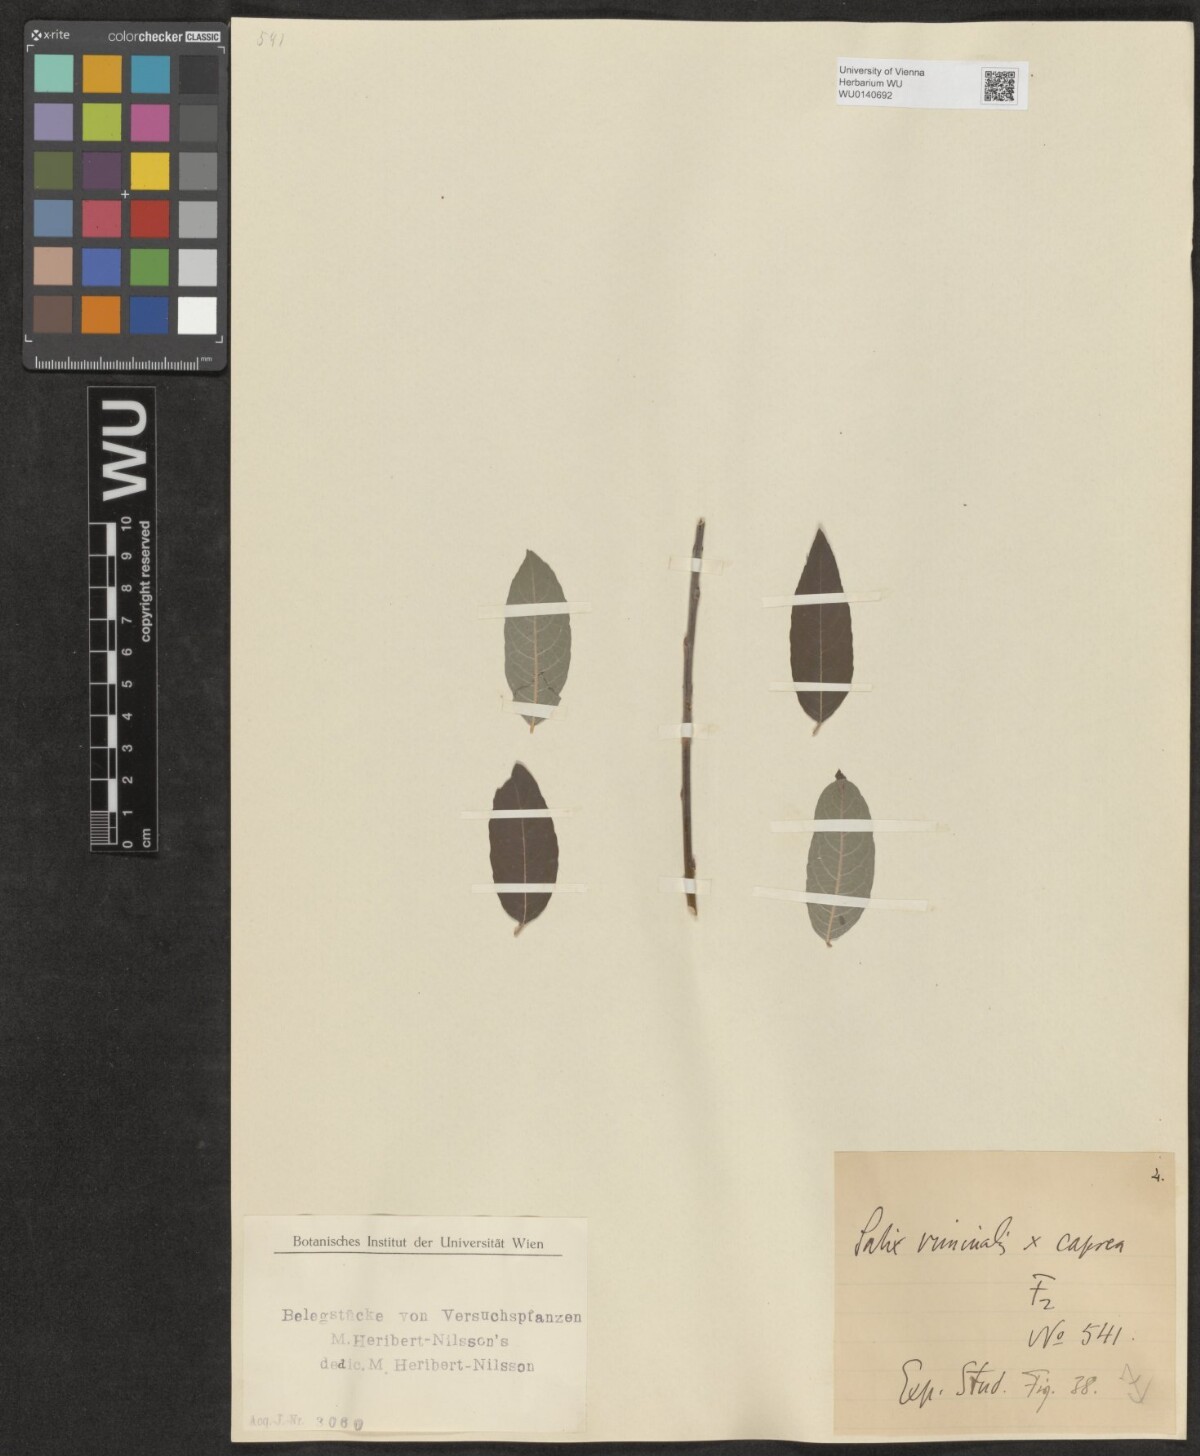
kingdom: Plantae
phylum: Tracheophyta
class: Magnoliopsida
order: Malpighiales
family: Salicaceae
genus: Salix
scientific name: Salix
